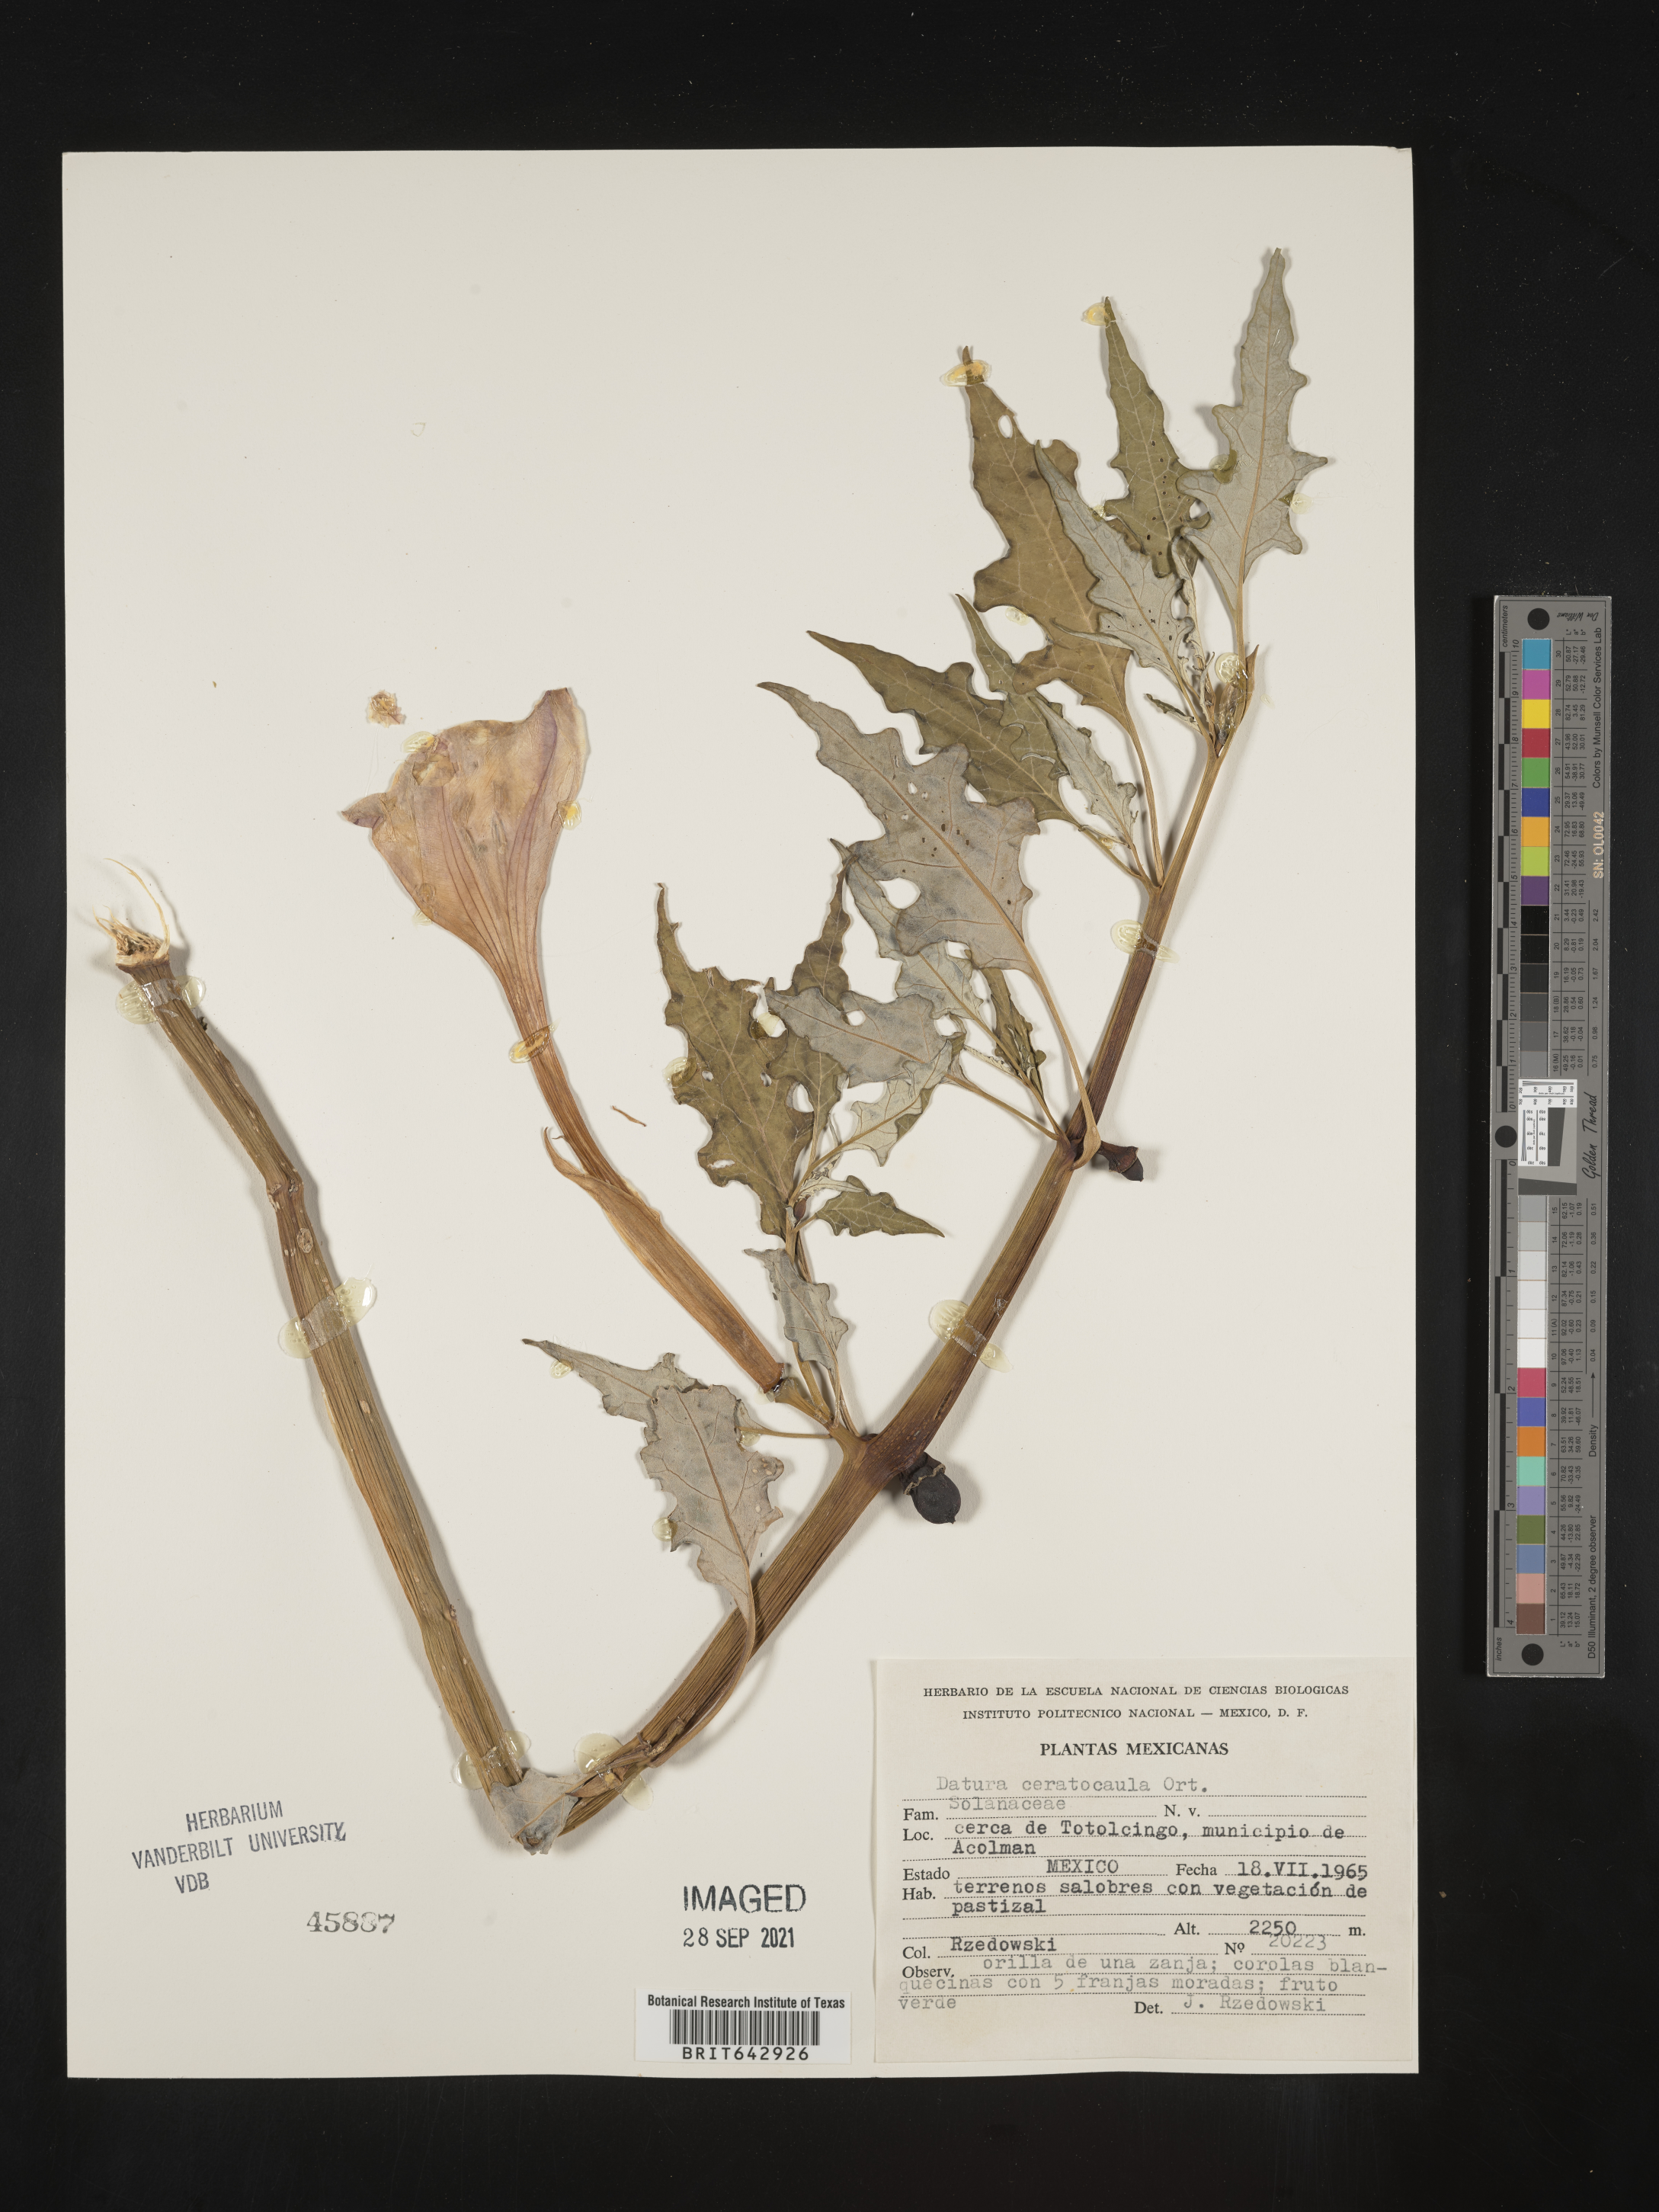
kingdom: Plantae
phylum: Tracheophyta
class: Magnoliopsida
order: Solanales
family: Solanaceae
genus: Datura
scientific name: Datura
